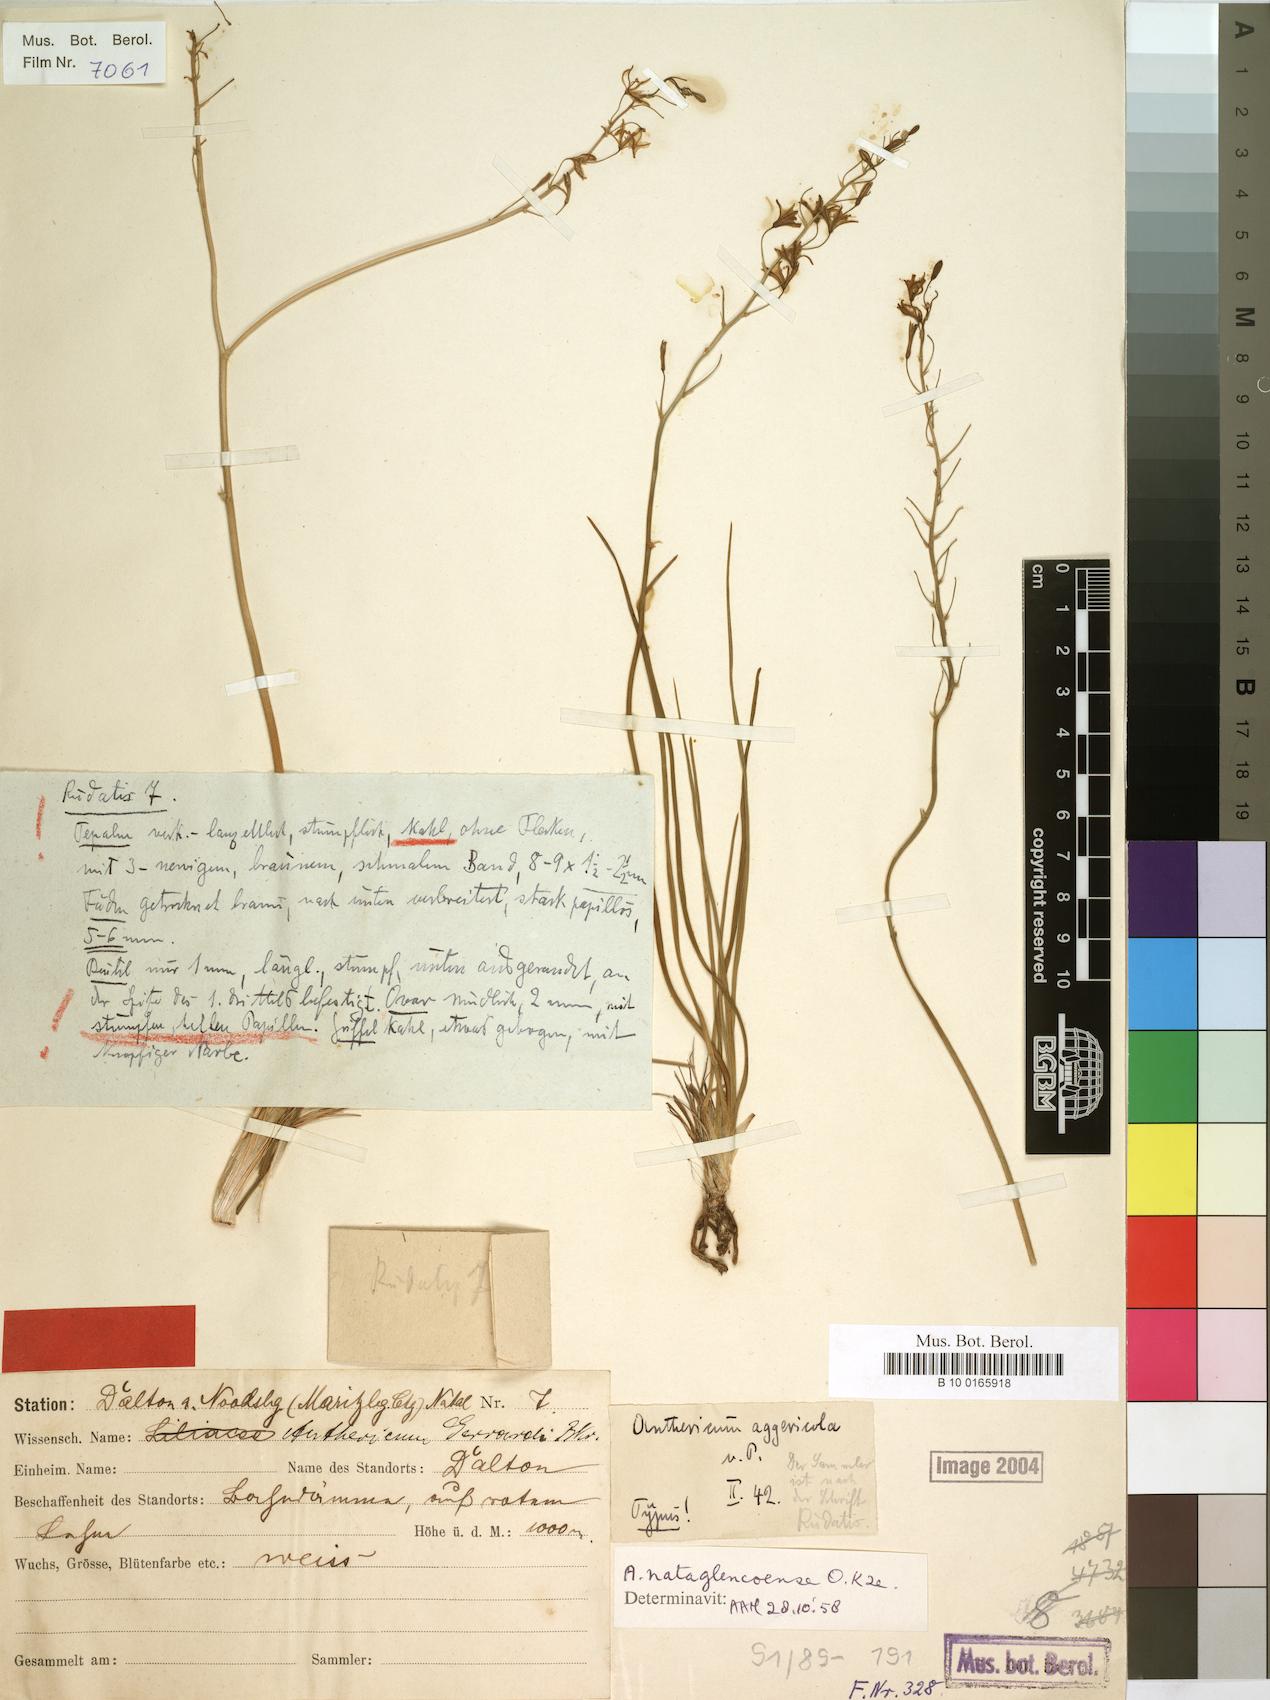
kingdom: Plantae
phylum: Tracheophyta
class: Liliopsida
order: Asparagales
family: Asphodelaceae
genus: Trachyandra
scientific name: Trachyandra asperata
